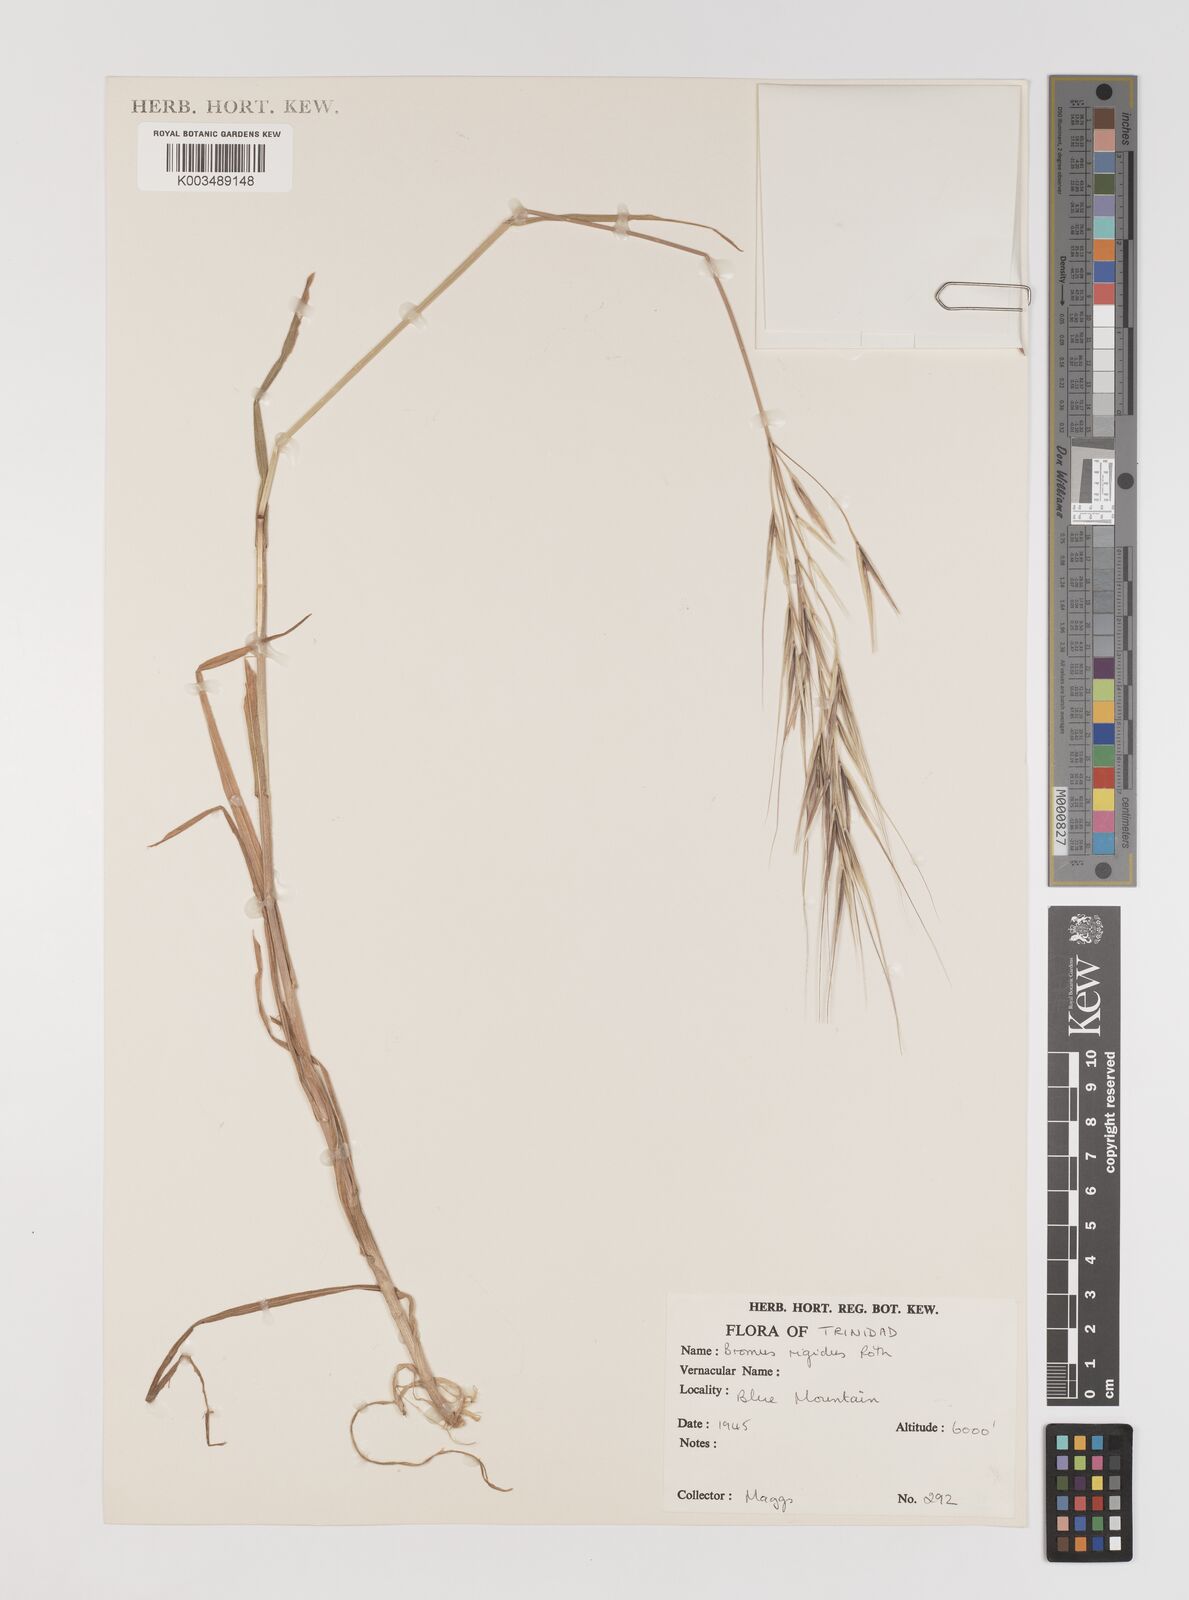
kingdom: Plantae
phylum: Tracheophyta
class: Liliopsida
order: Poales
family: Poaceae
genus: Bromus
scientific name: Bromus
